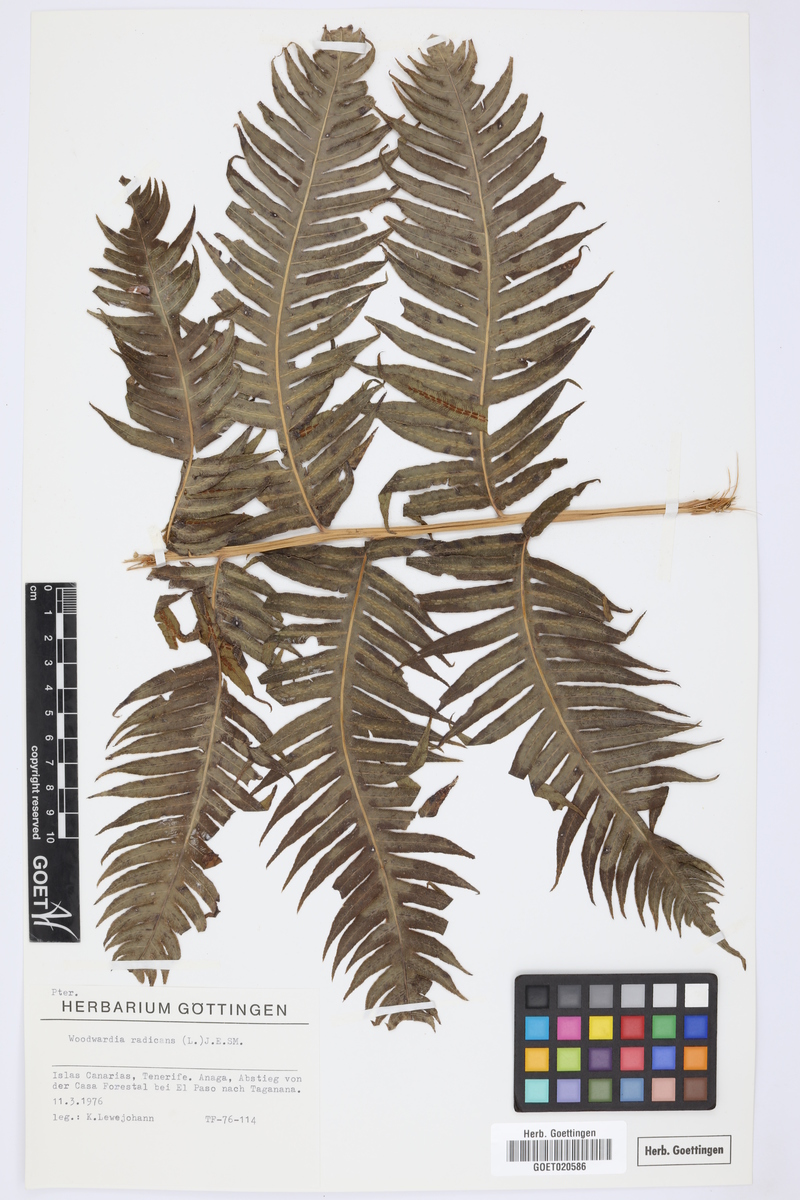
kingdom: Plantae
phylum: Tracheophyta
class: Polypodiopsida
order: Polypodiales
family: Blechnaceae
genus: Woodwardia
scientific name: Woodwardia radicans
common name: Rooting chainfern
